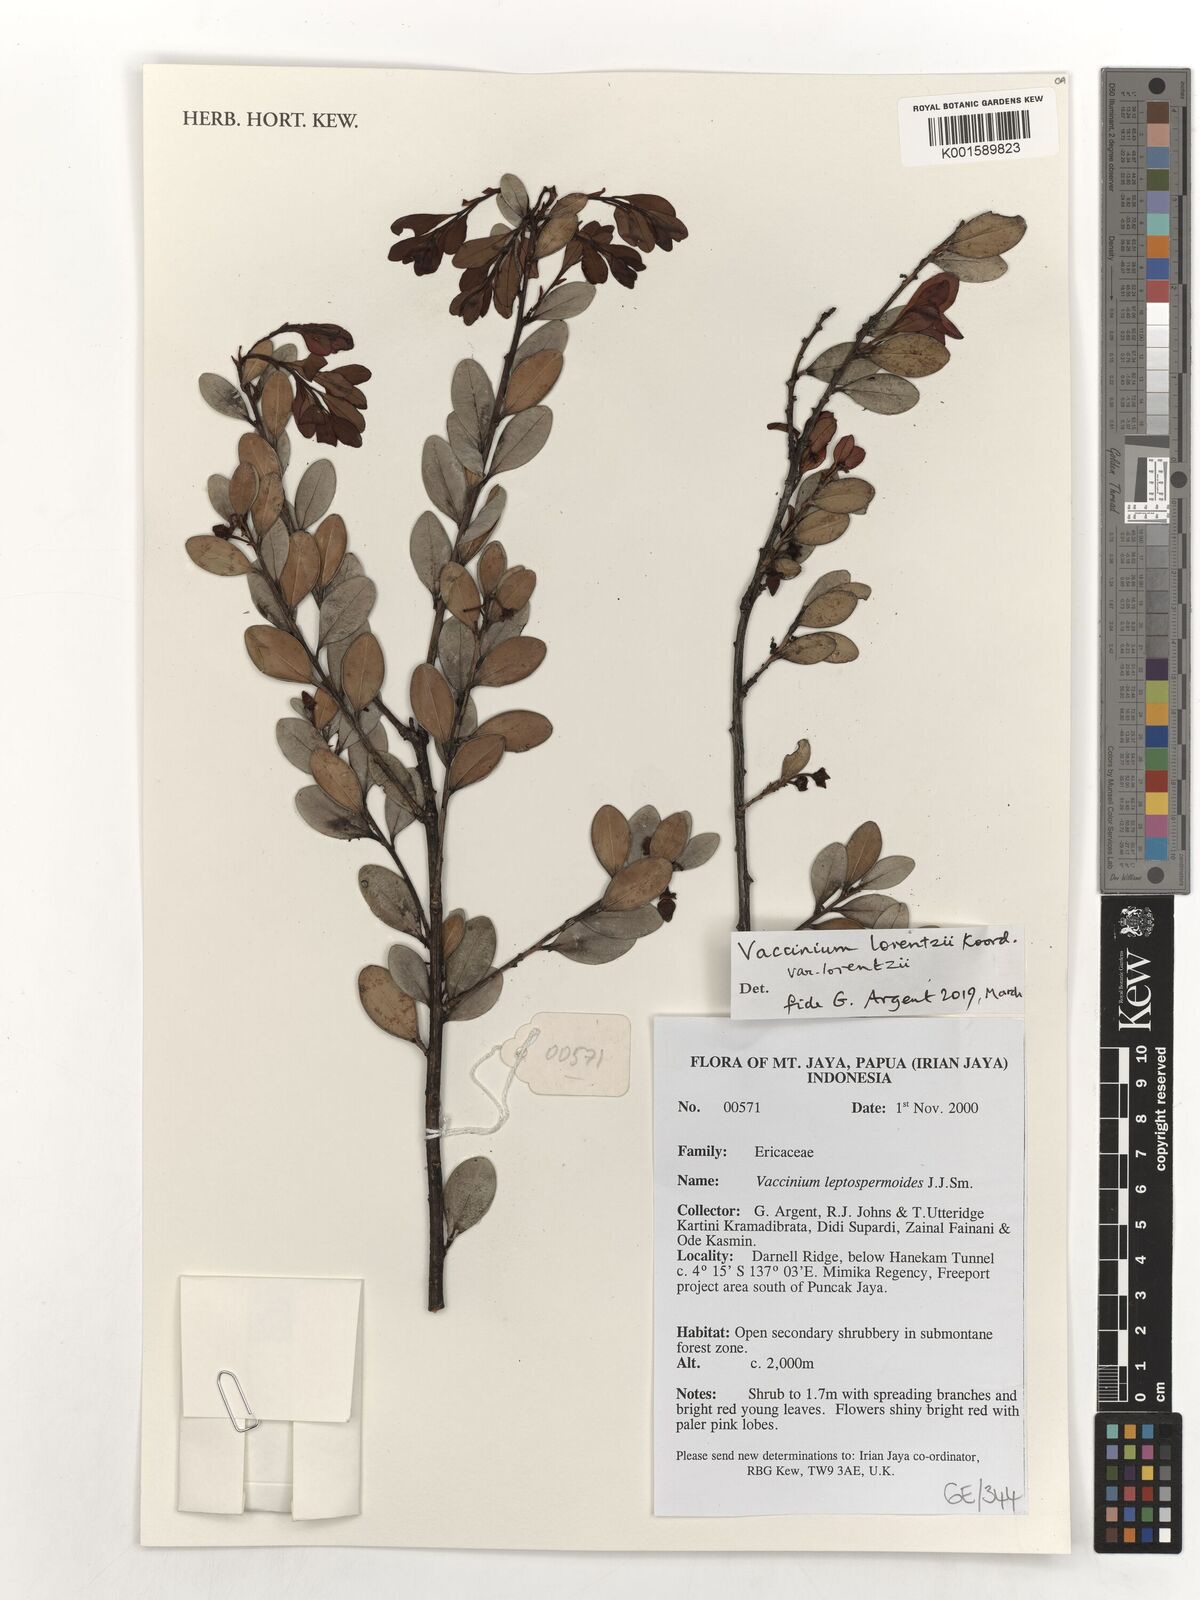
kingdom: Plantae
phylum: Tracheophyta
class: Magnoliopsida
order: Ericales
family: Ericaceae
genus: Vaccinium
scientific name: Vaccinium lorentzii
